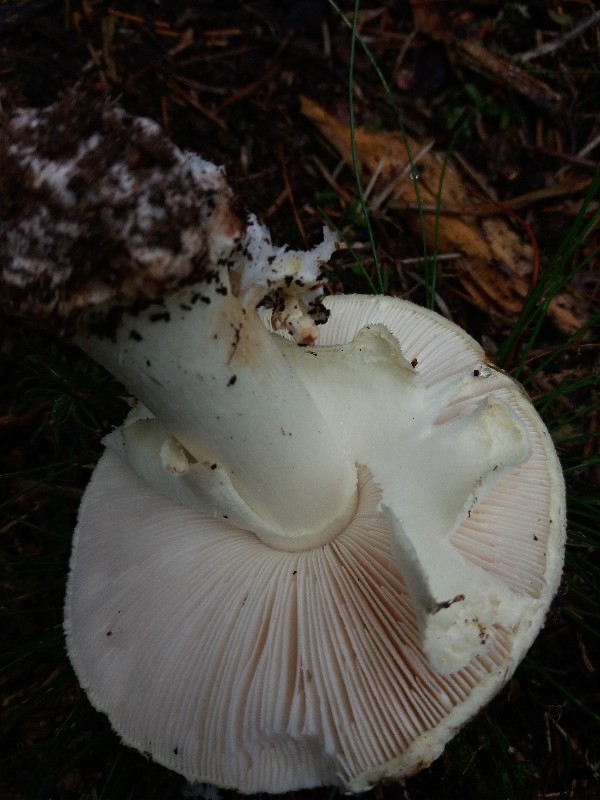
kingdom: Fungi
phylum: Basidiomycota
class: Agaricomycetes
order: Agaricales
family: Amanitaceae
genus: Amanita
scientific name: Amanita citrina
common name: kugleknoldet fluesvamp
